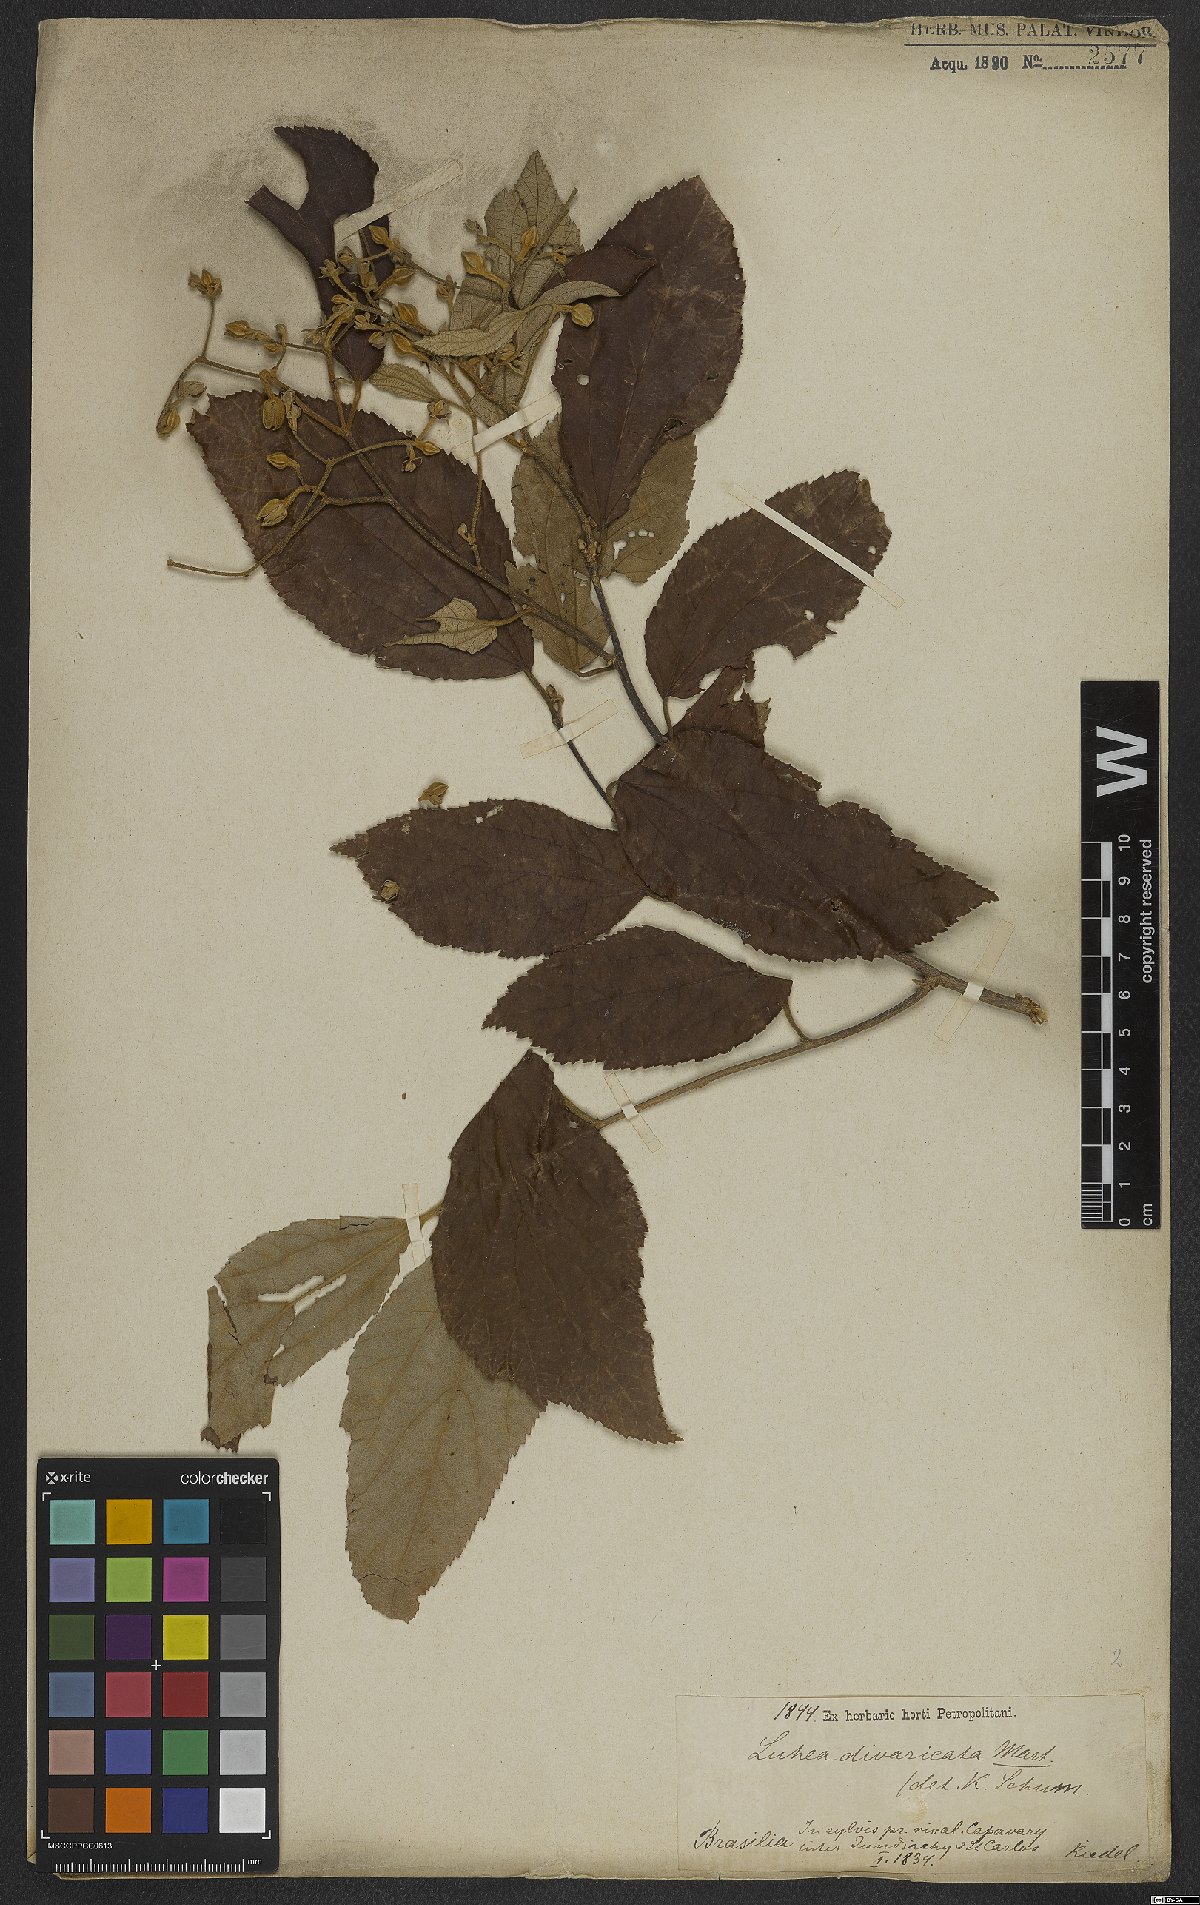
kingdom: Plantae
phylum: Tracheophyta
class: Magnoliopsida
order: Malvales
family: Malvaceae
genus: Luehea
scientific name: Luehea divaricata
